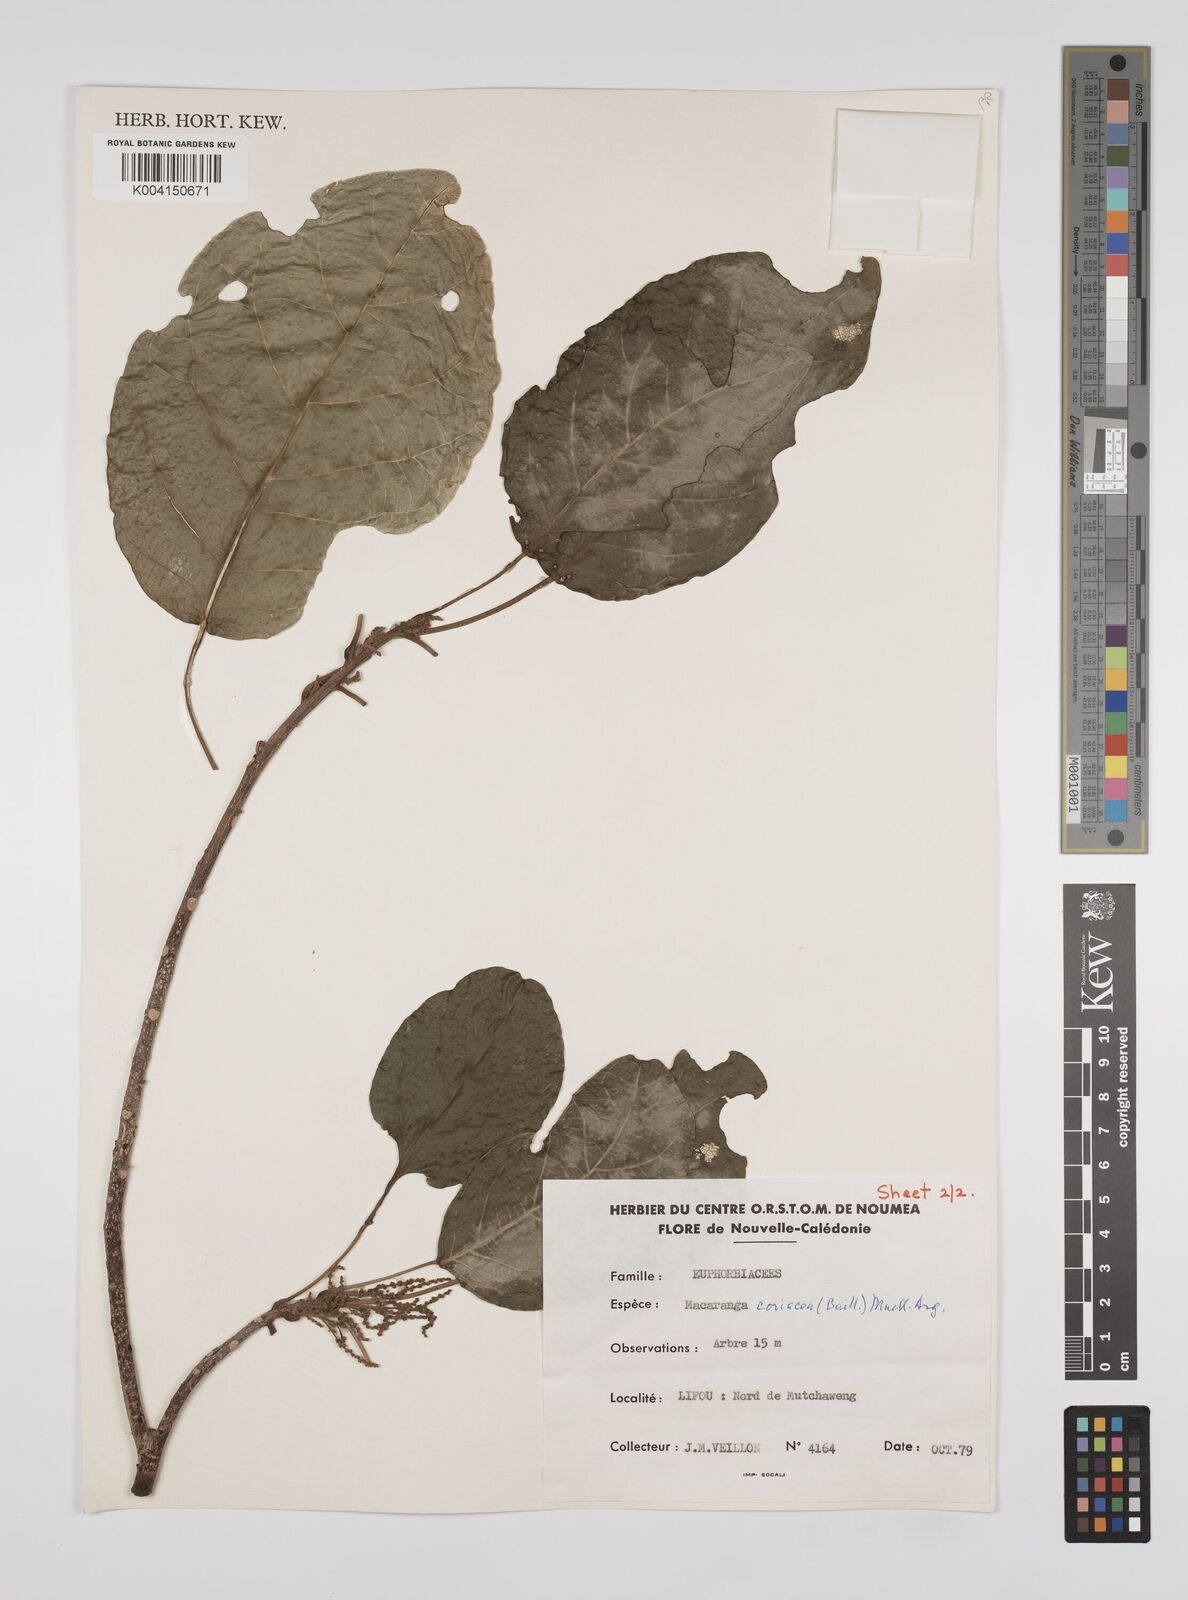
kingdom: Plantae
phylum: Tracheophyta
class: Magnoliopsida
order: Malpighiales
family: Euphorbiaceae
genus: Macaranga
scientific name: Macaranga coriacea
